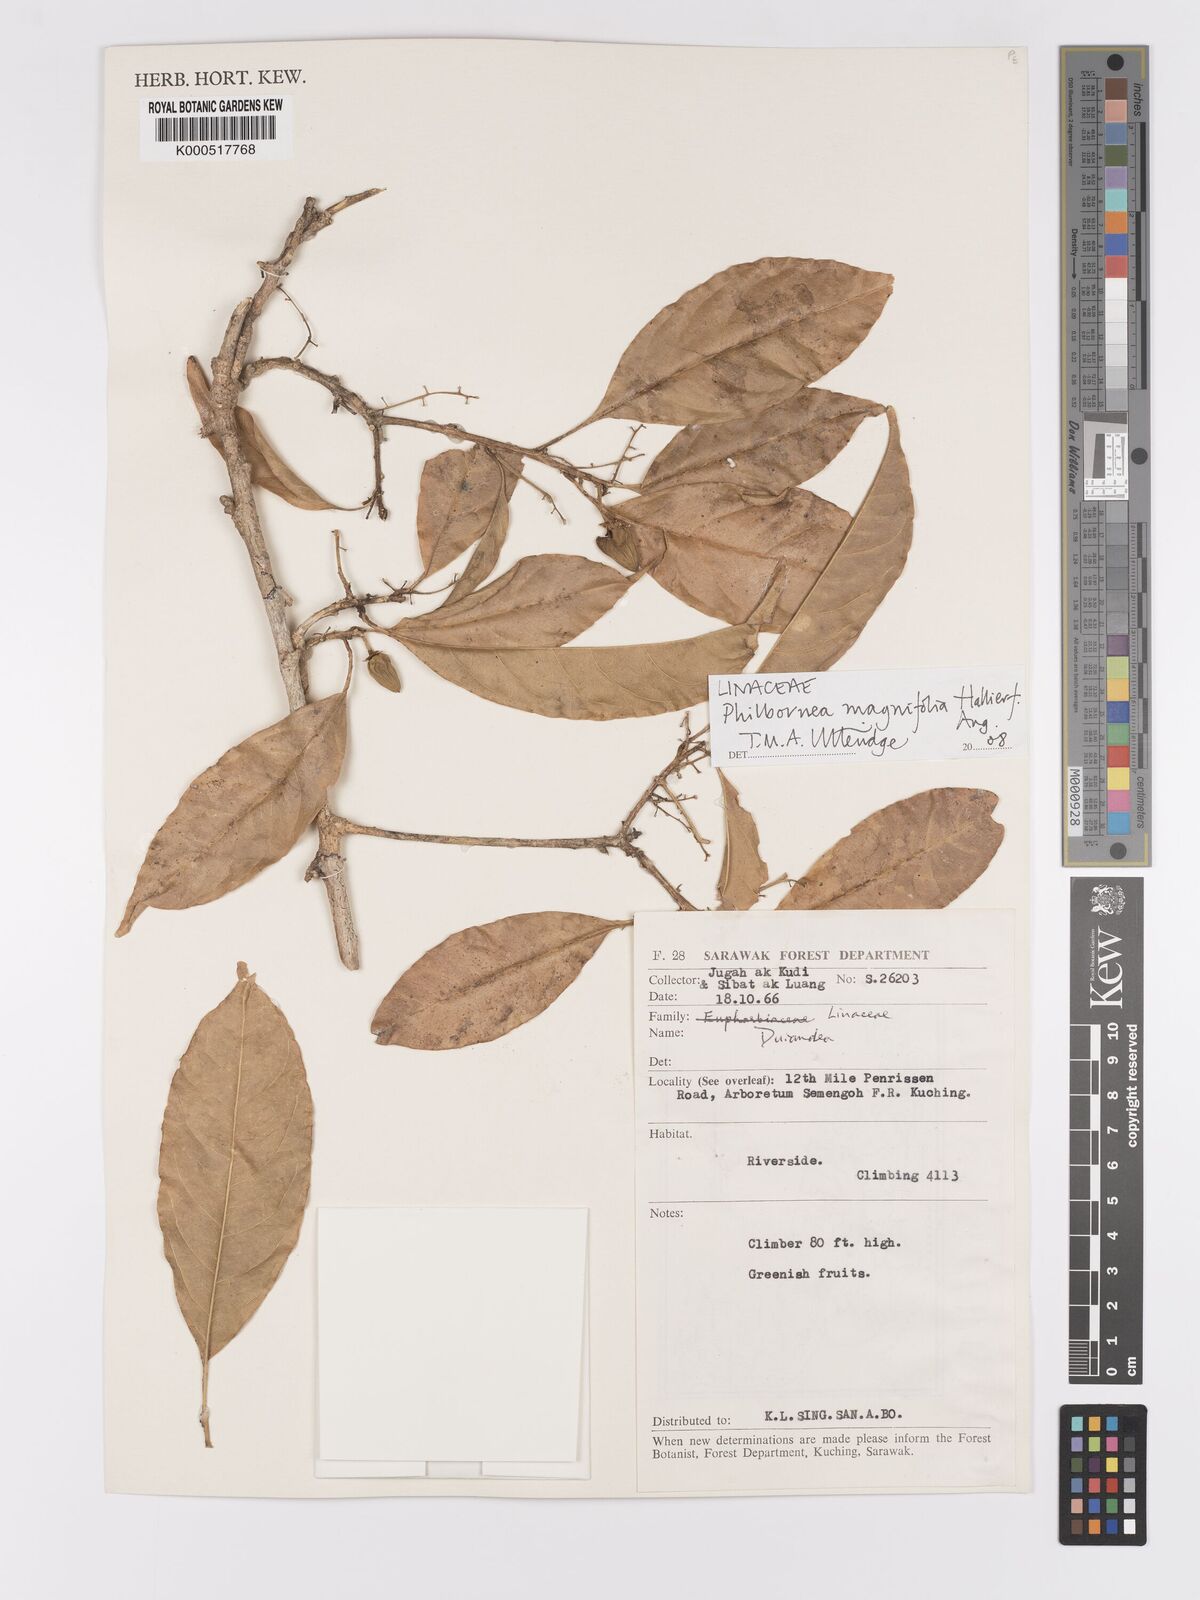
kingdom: Plantae
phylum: Tracheophyta
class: Magnoliopsida
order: Malpighiales
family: Linaceae
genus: Philbornea
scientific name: Philbornea magnifolia
